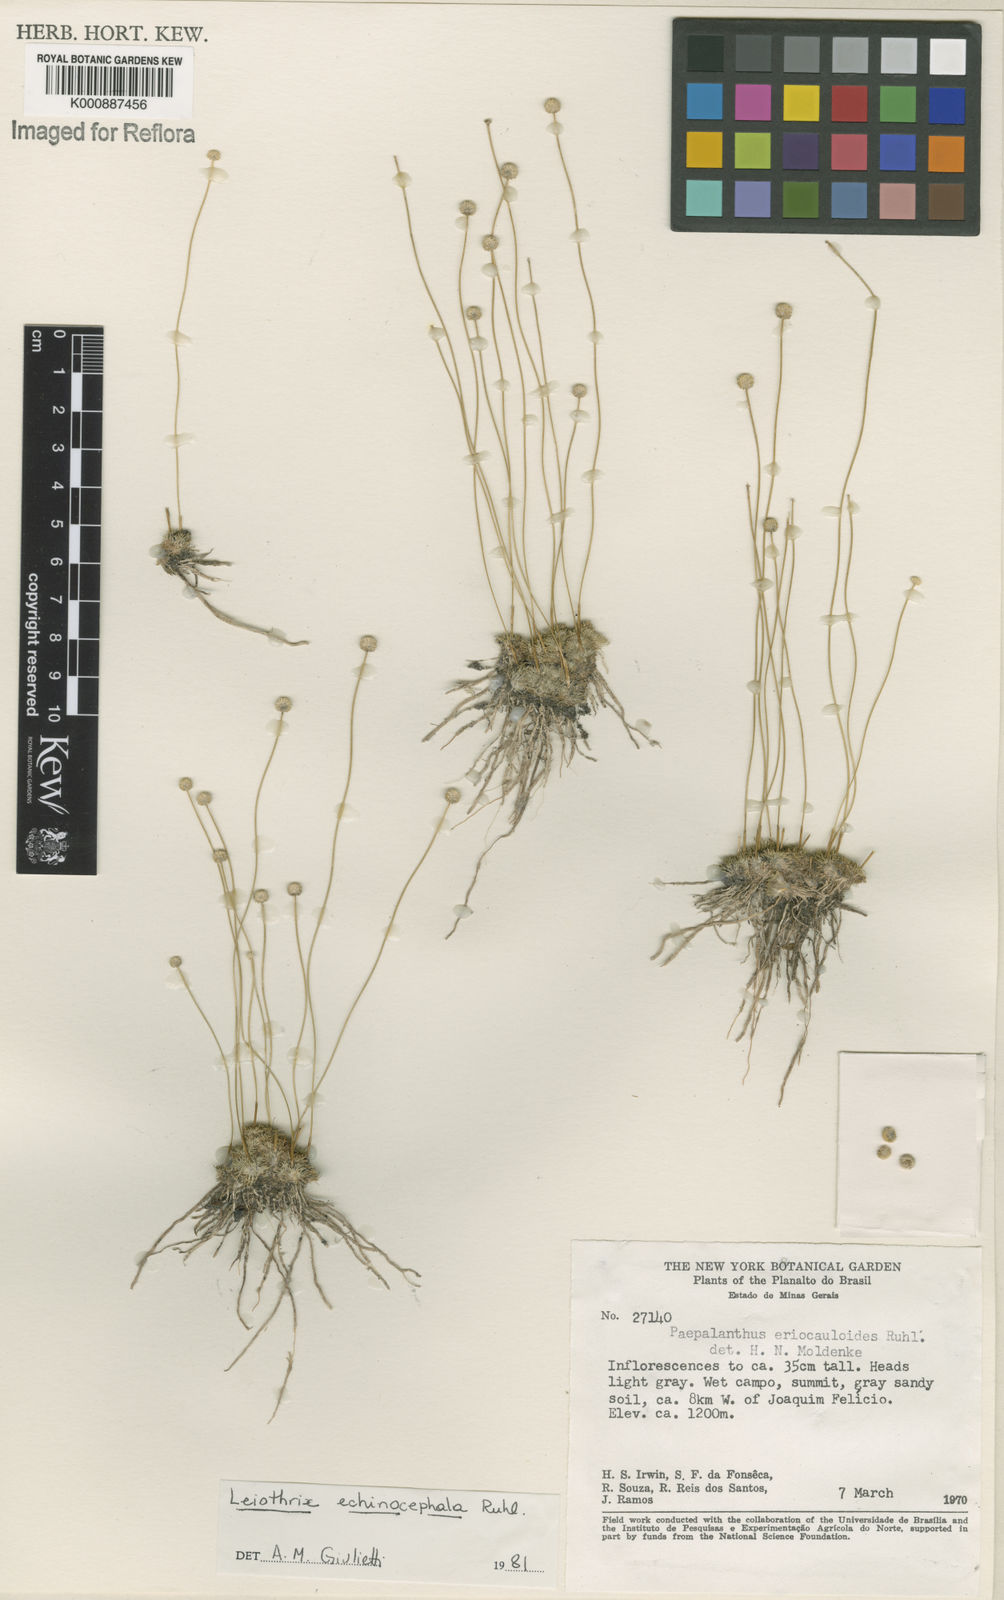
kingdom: Plantae
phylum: Tracheophyta
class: Liliopsida
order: Poales
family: Eriocaulaceae
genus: Leiothrix
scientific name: Leiothrix echinocephala
